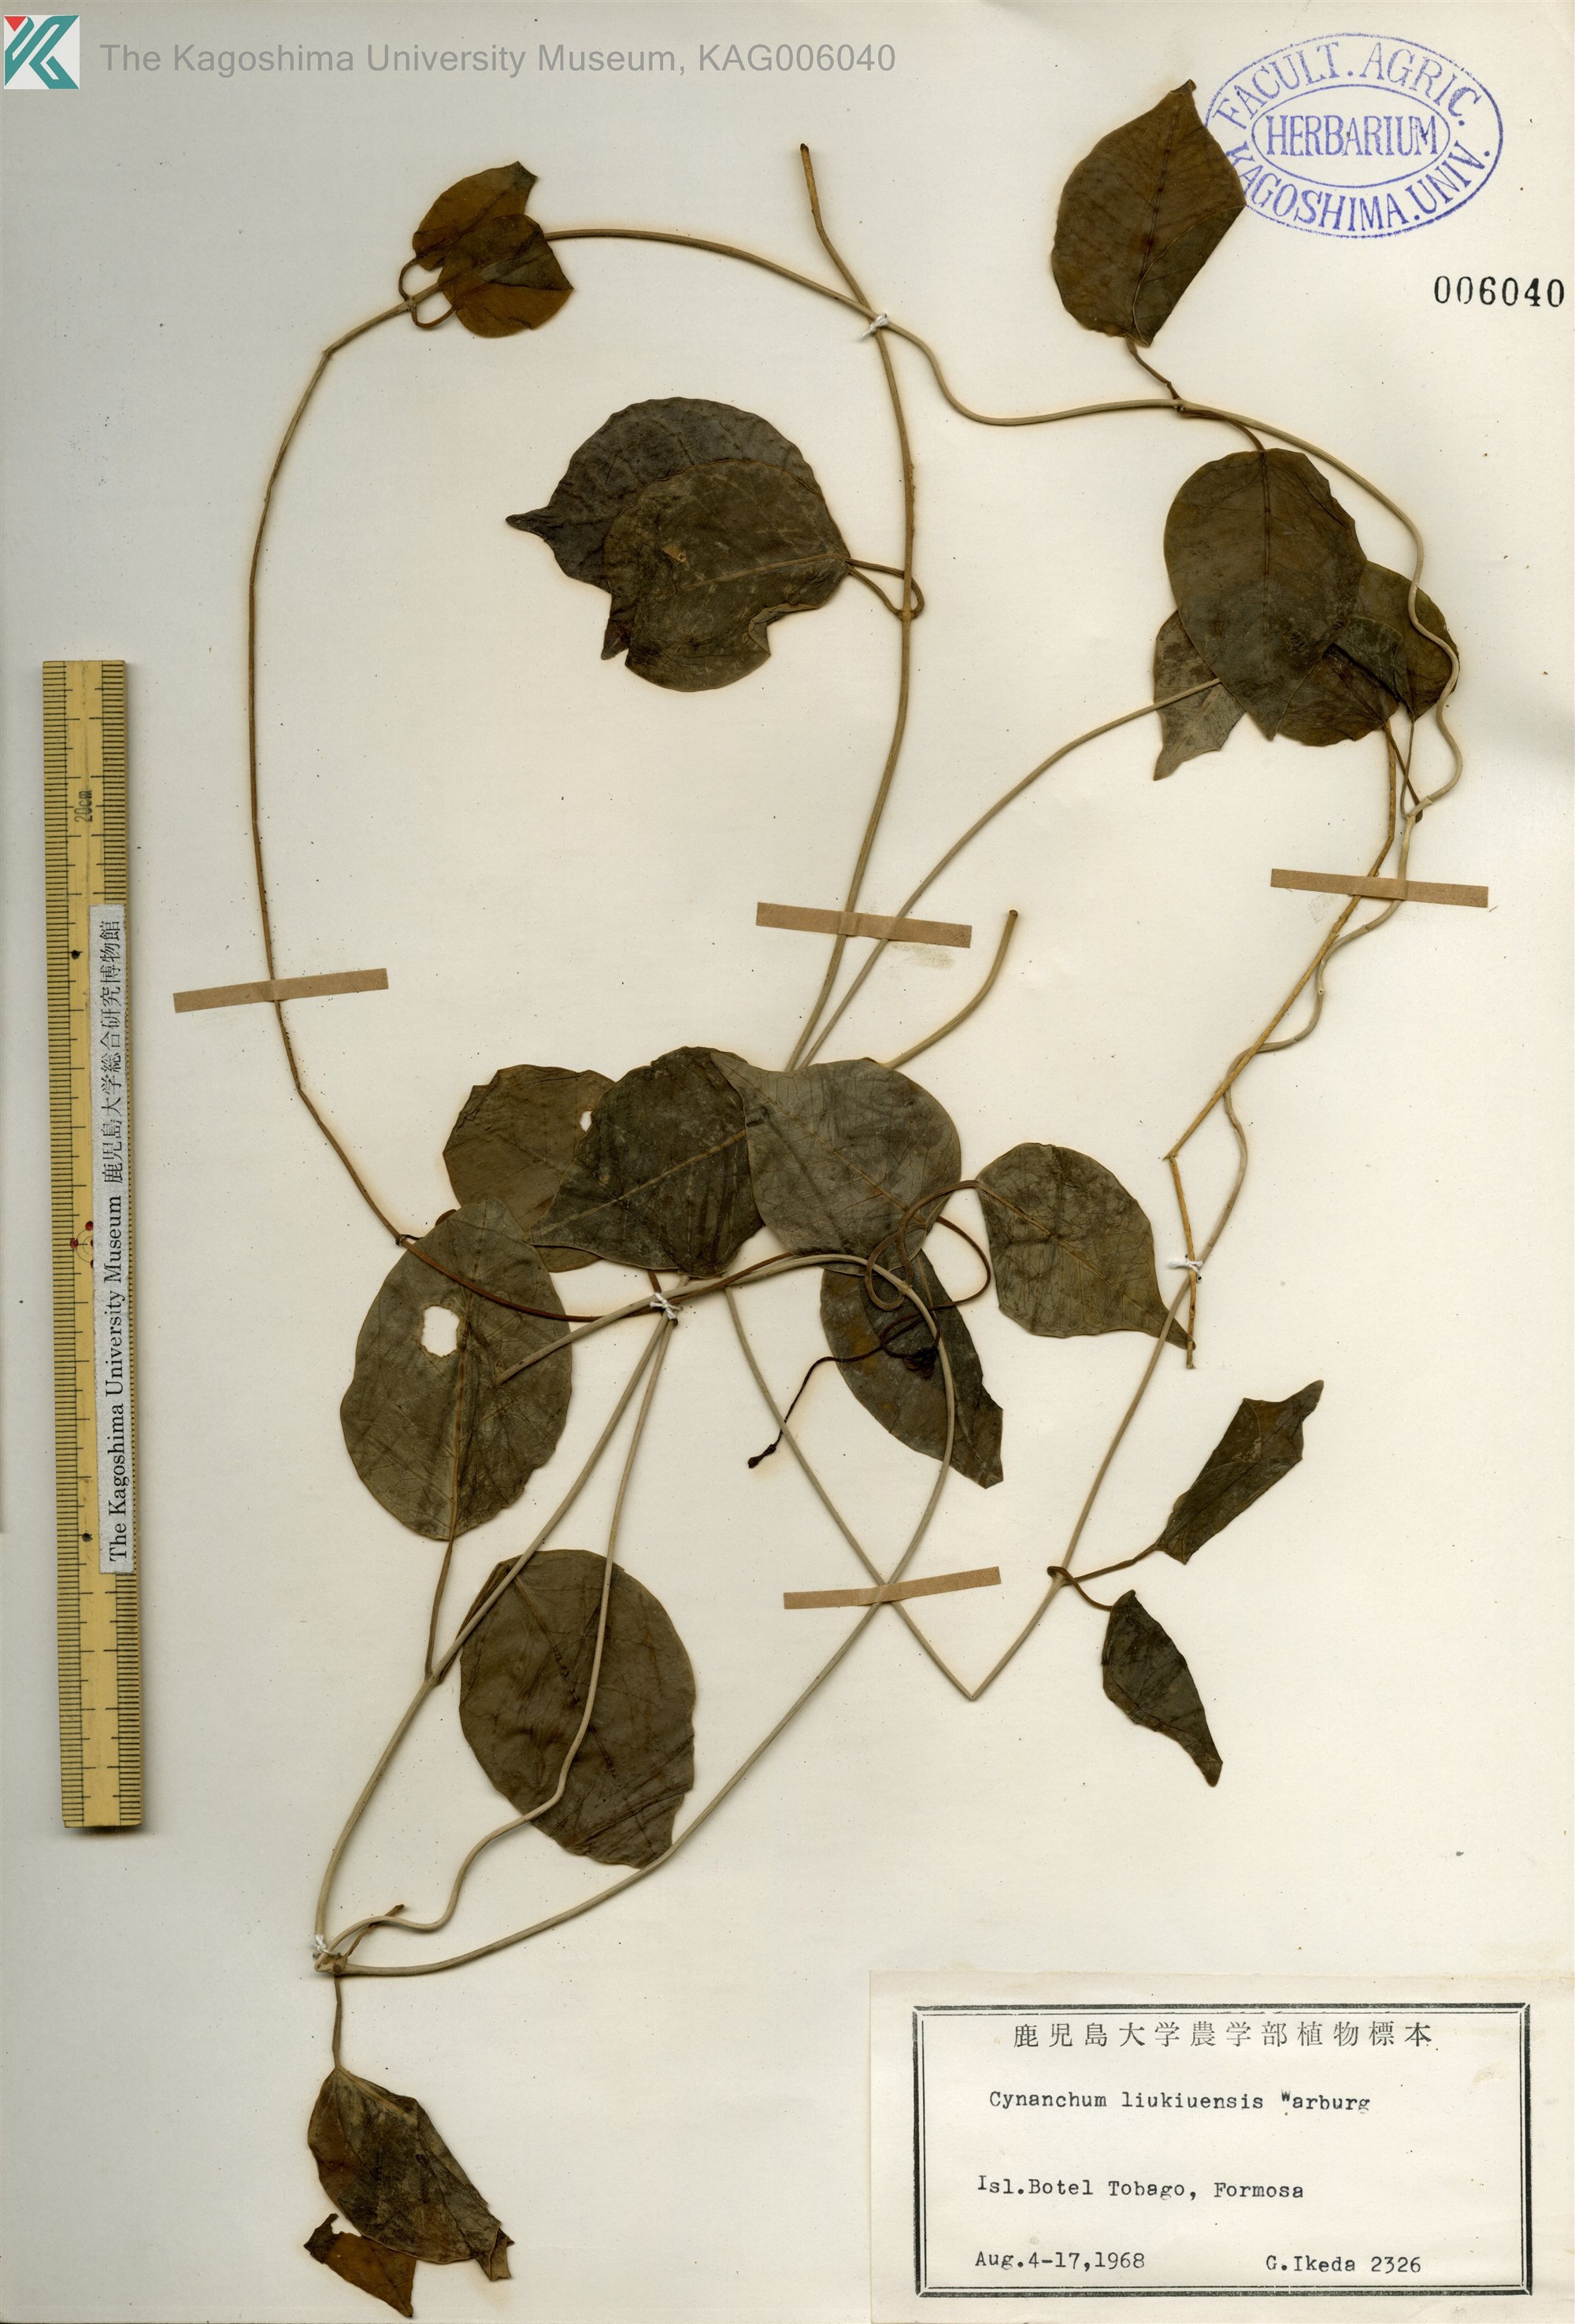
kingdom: Plantae
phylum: Tracheophyta
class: Magnoliopsida
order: Gentianales
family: Apocynaceae
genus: Cynanchum
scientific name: Cynanchum liukiuense
